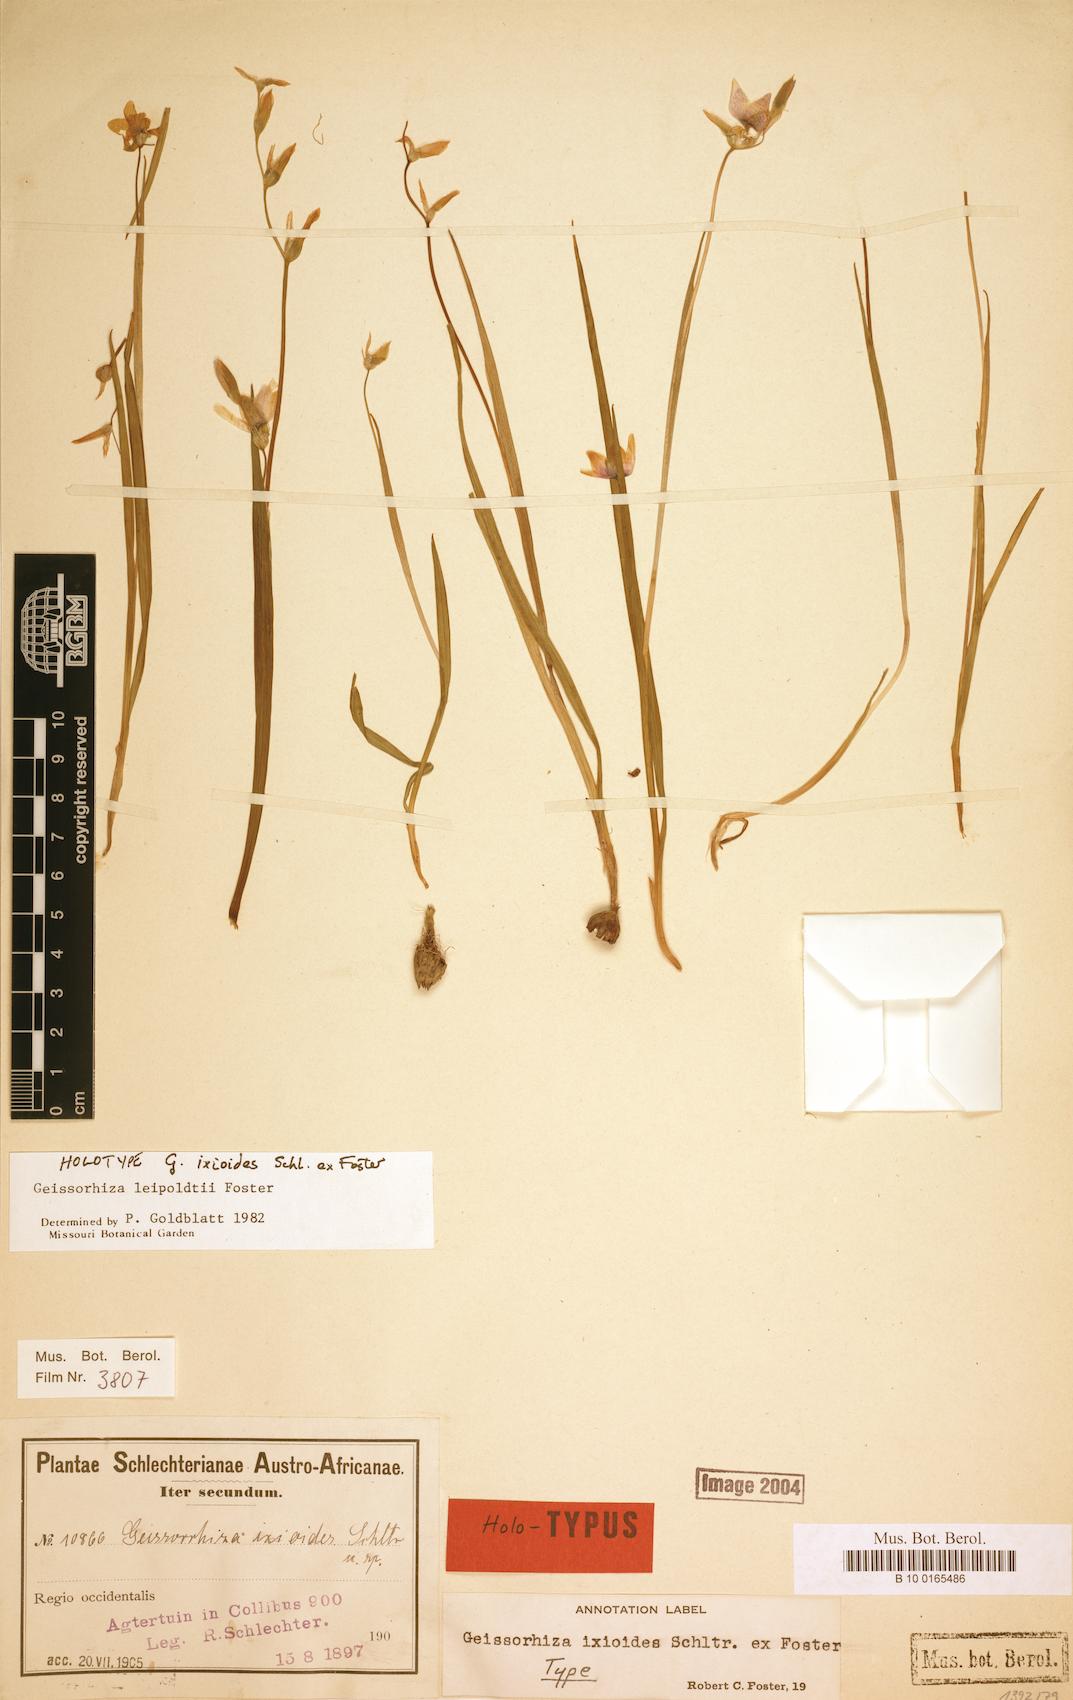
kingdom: Plantae
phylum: Tracheophyta
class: Liliopsida
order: Asparagales
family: Iridaceae
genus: Geissorhiza
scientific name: Geissorhiza leipoldtii
